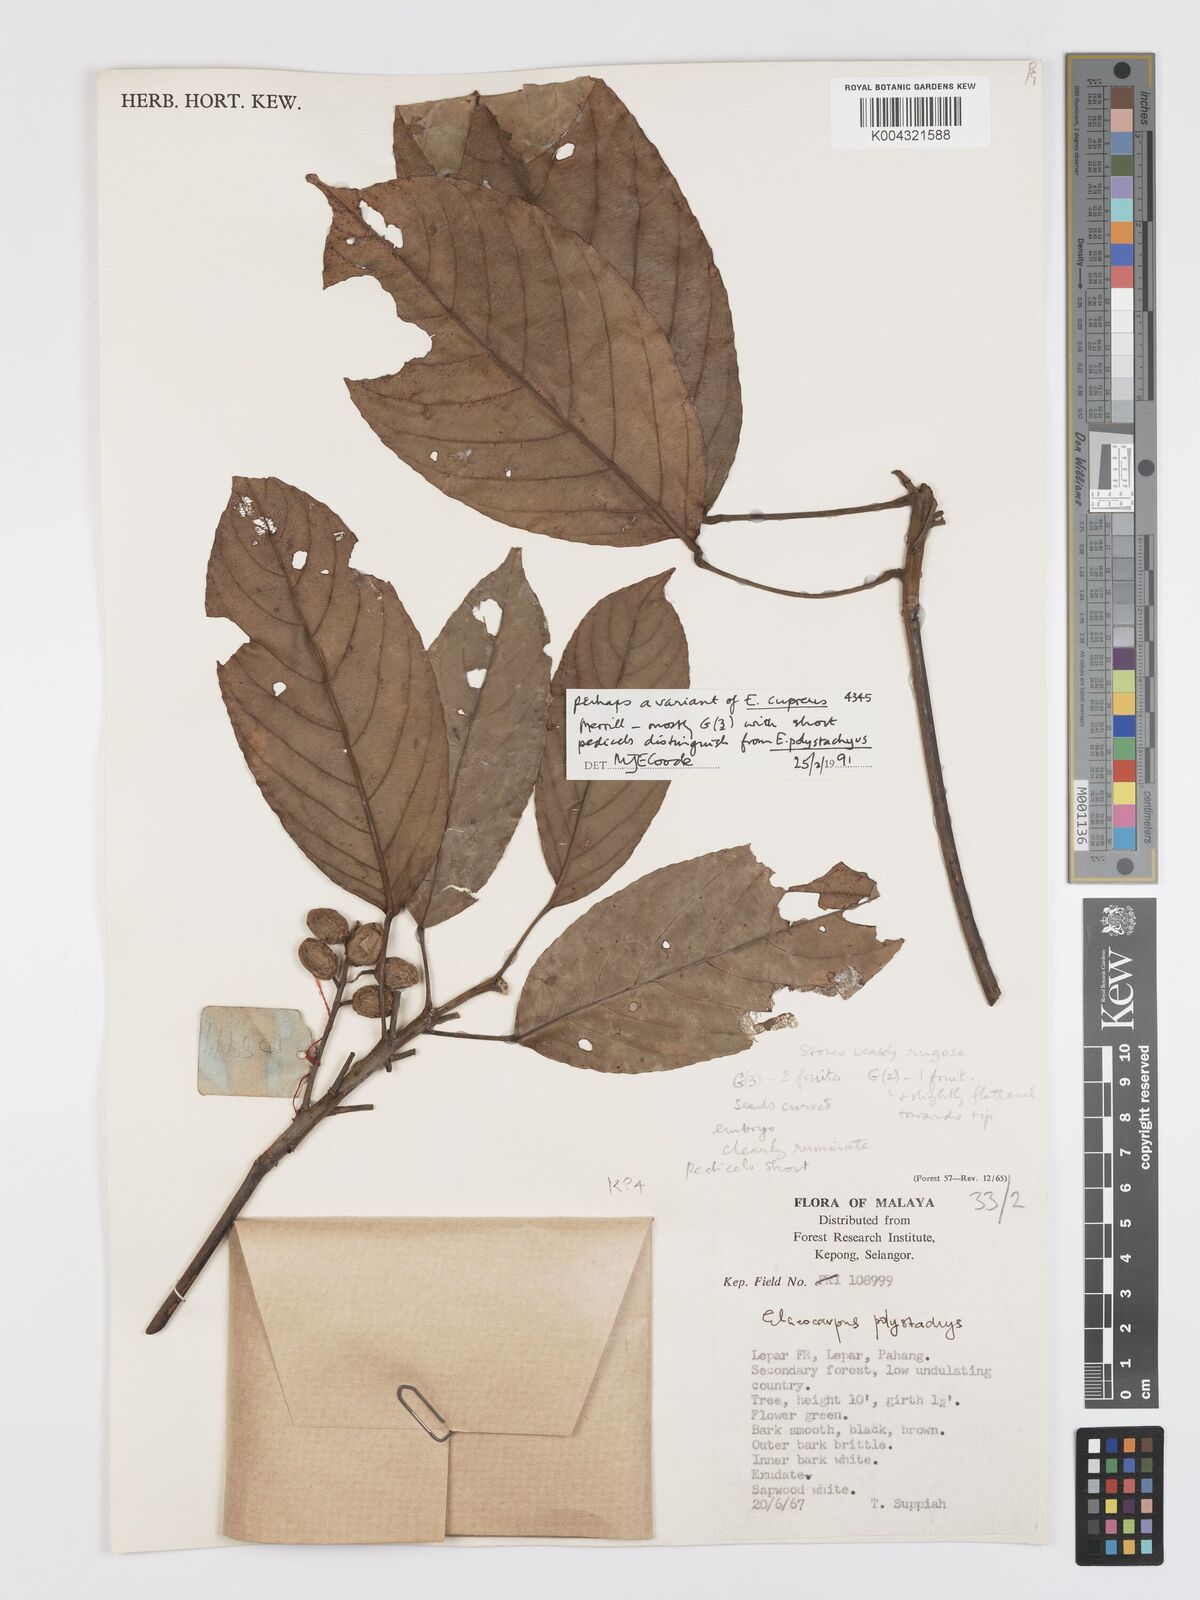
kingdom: Plantae
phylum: Tracheophyta
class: Magnoliopsida
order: Oxalidales
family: Elaeocarpaceae
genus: Elaeocarpus
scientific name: Elaeocarpus cupreus
